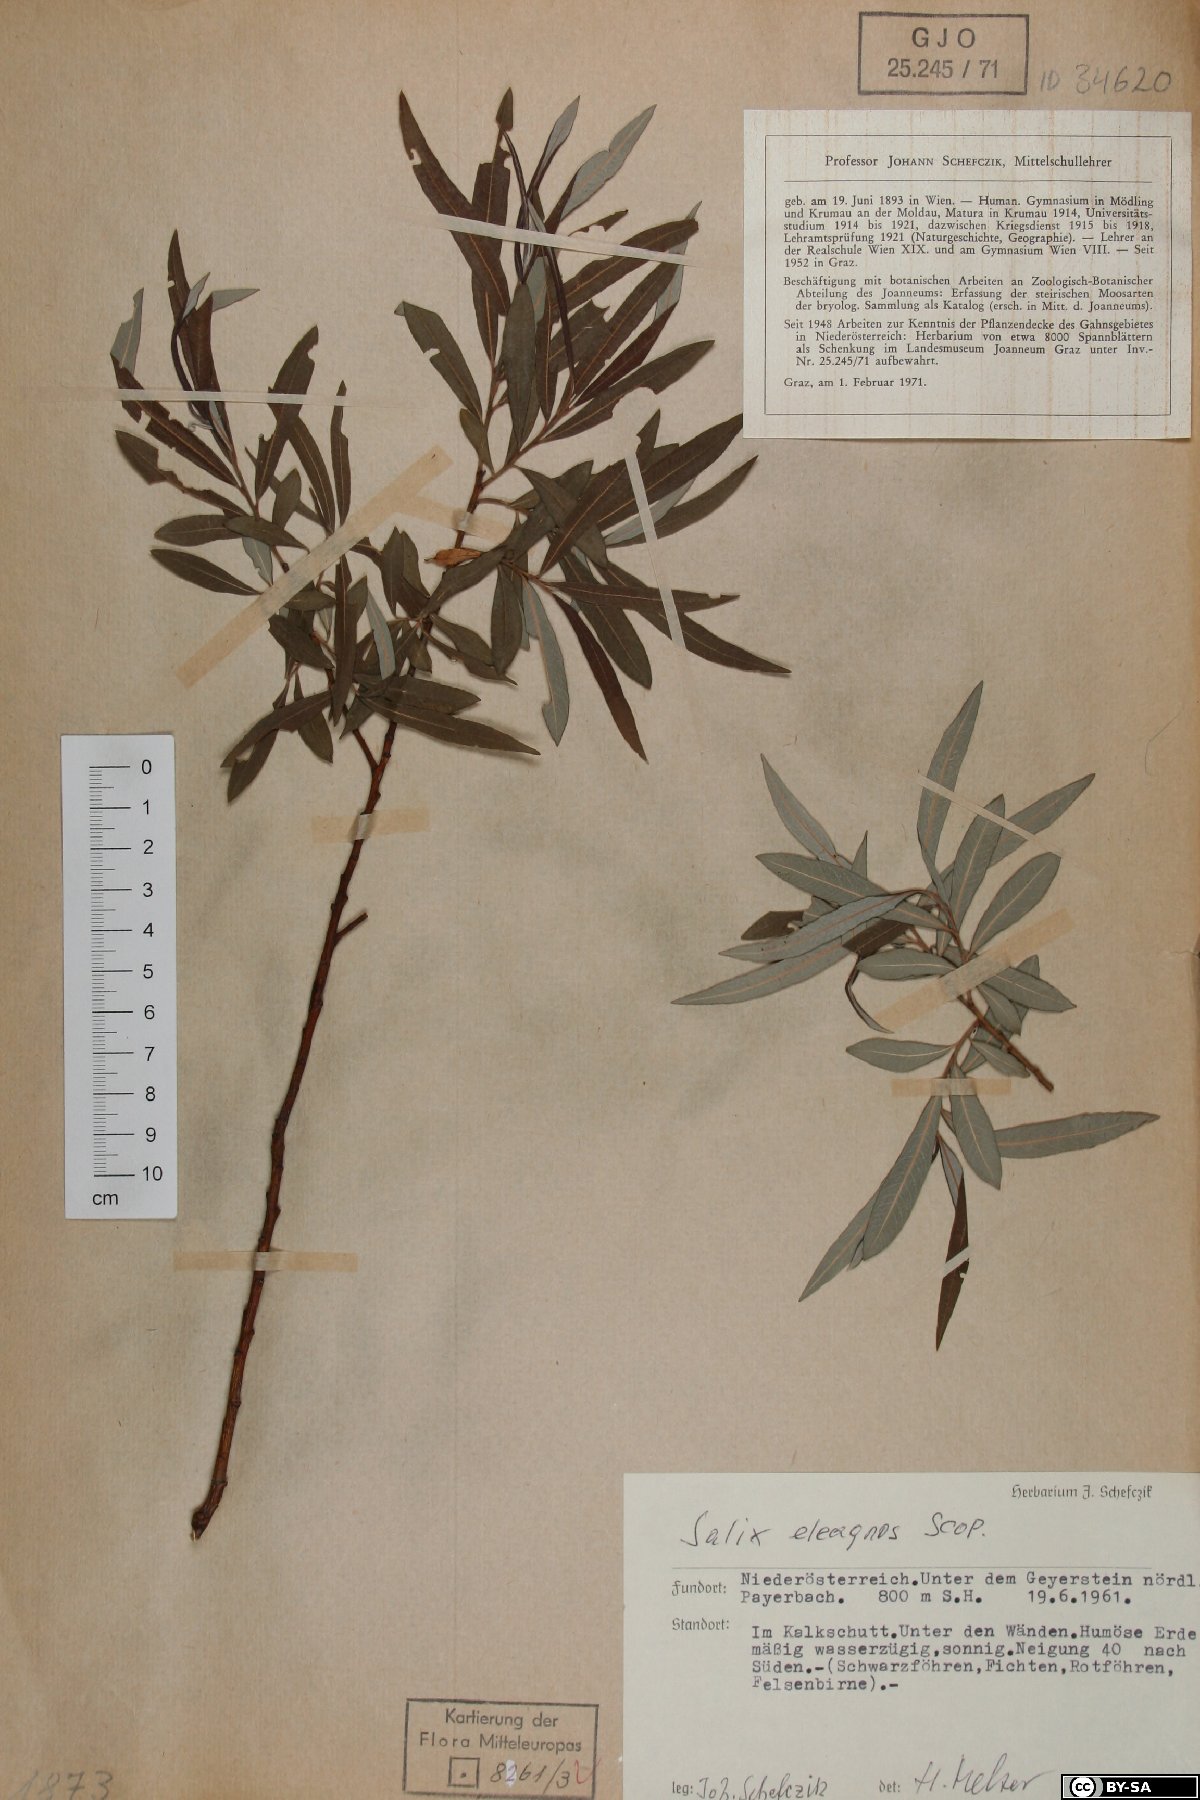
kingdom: Plantae
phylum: Tracheophyta
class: Magnoliopsida
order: Malpighiales
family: Salicaceae
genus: Salix
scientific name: Salix eleagnos
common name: Elaeagnus willow
